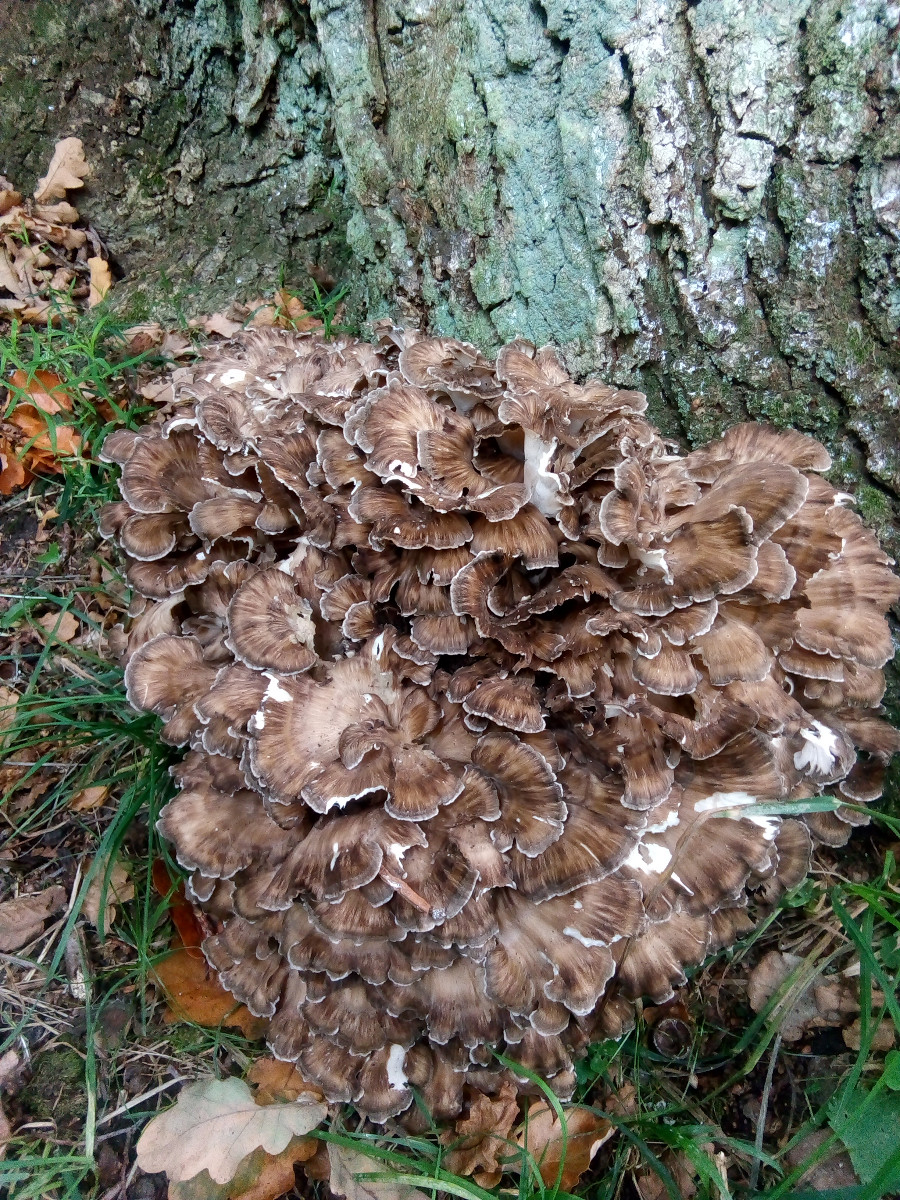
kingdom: Fungi
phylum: Basidiomycota
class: Agaricomycetes
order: Polyporales
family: Grifolaceae
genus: Grifola
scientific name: Grifola frondosa
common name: tueporesvamp
